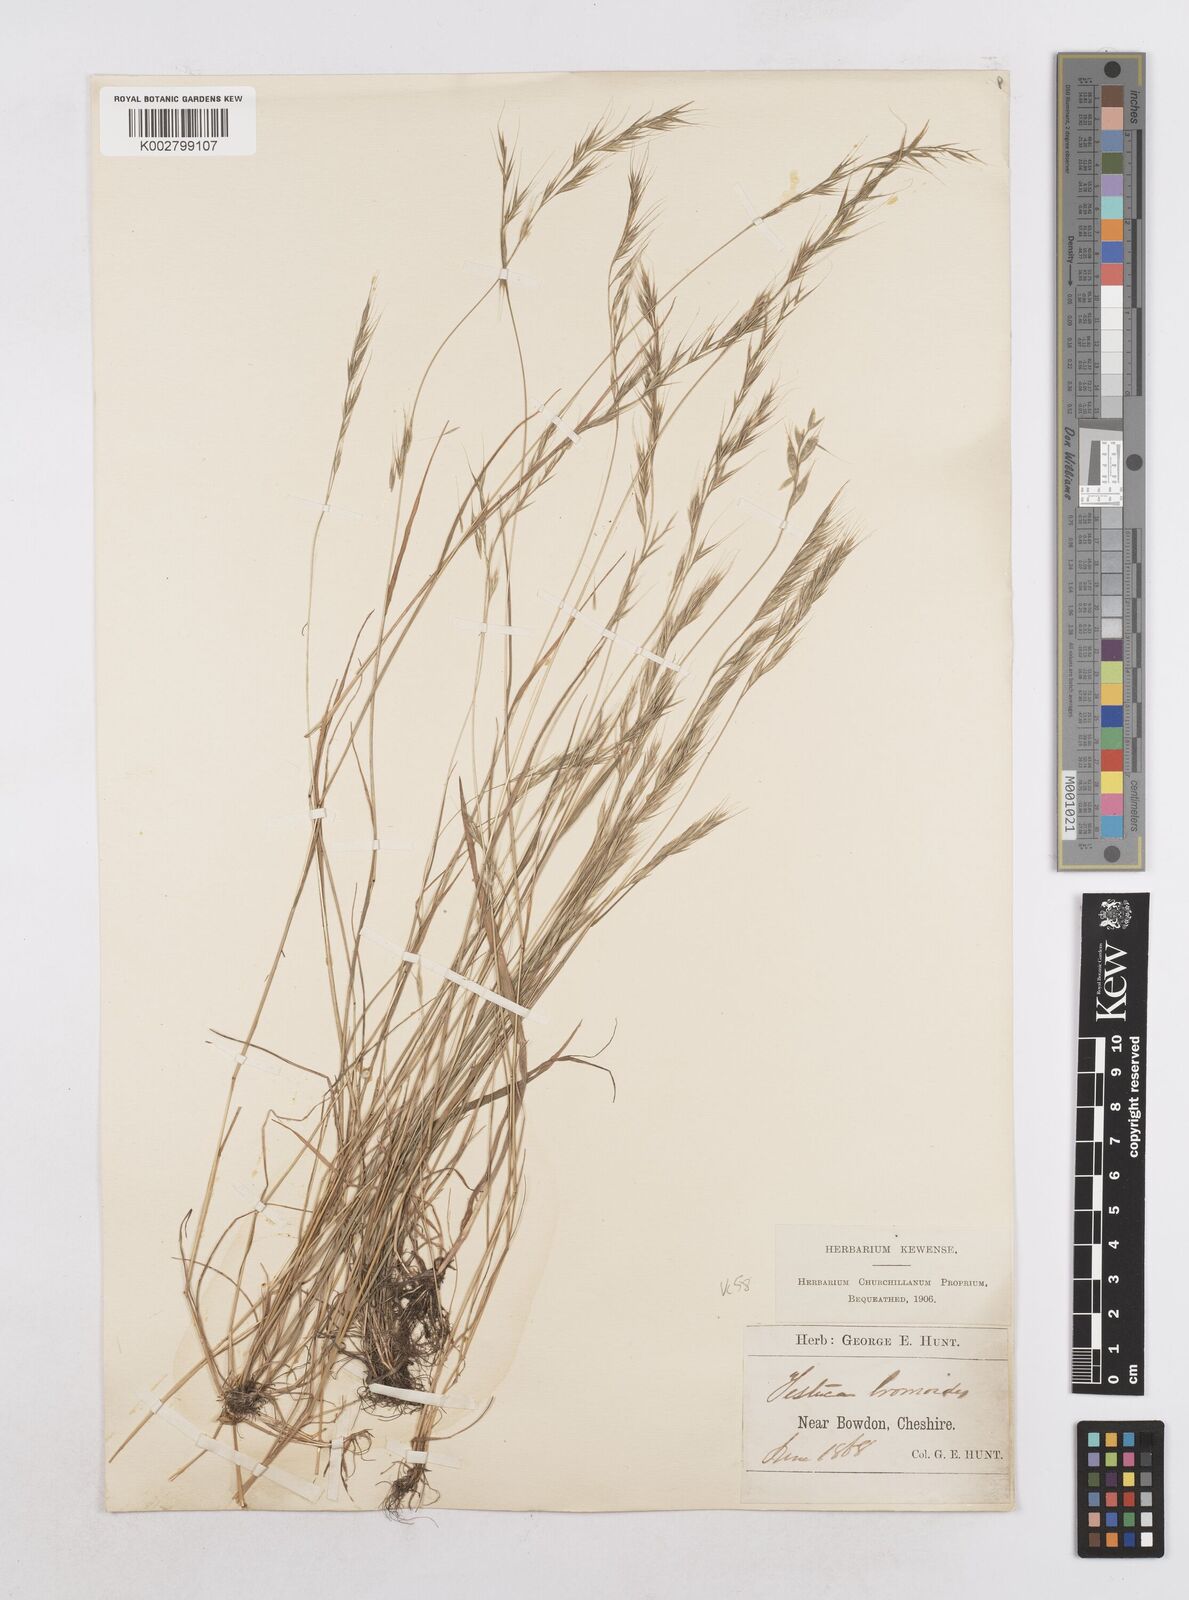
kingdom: Plantae
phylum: Tracheophyta
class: Liliopsida
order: Poales
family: Poaceae
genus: Festuca
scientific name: Festuca bromoides
